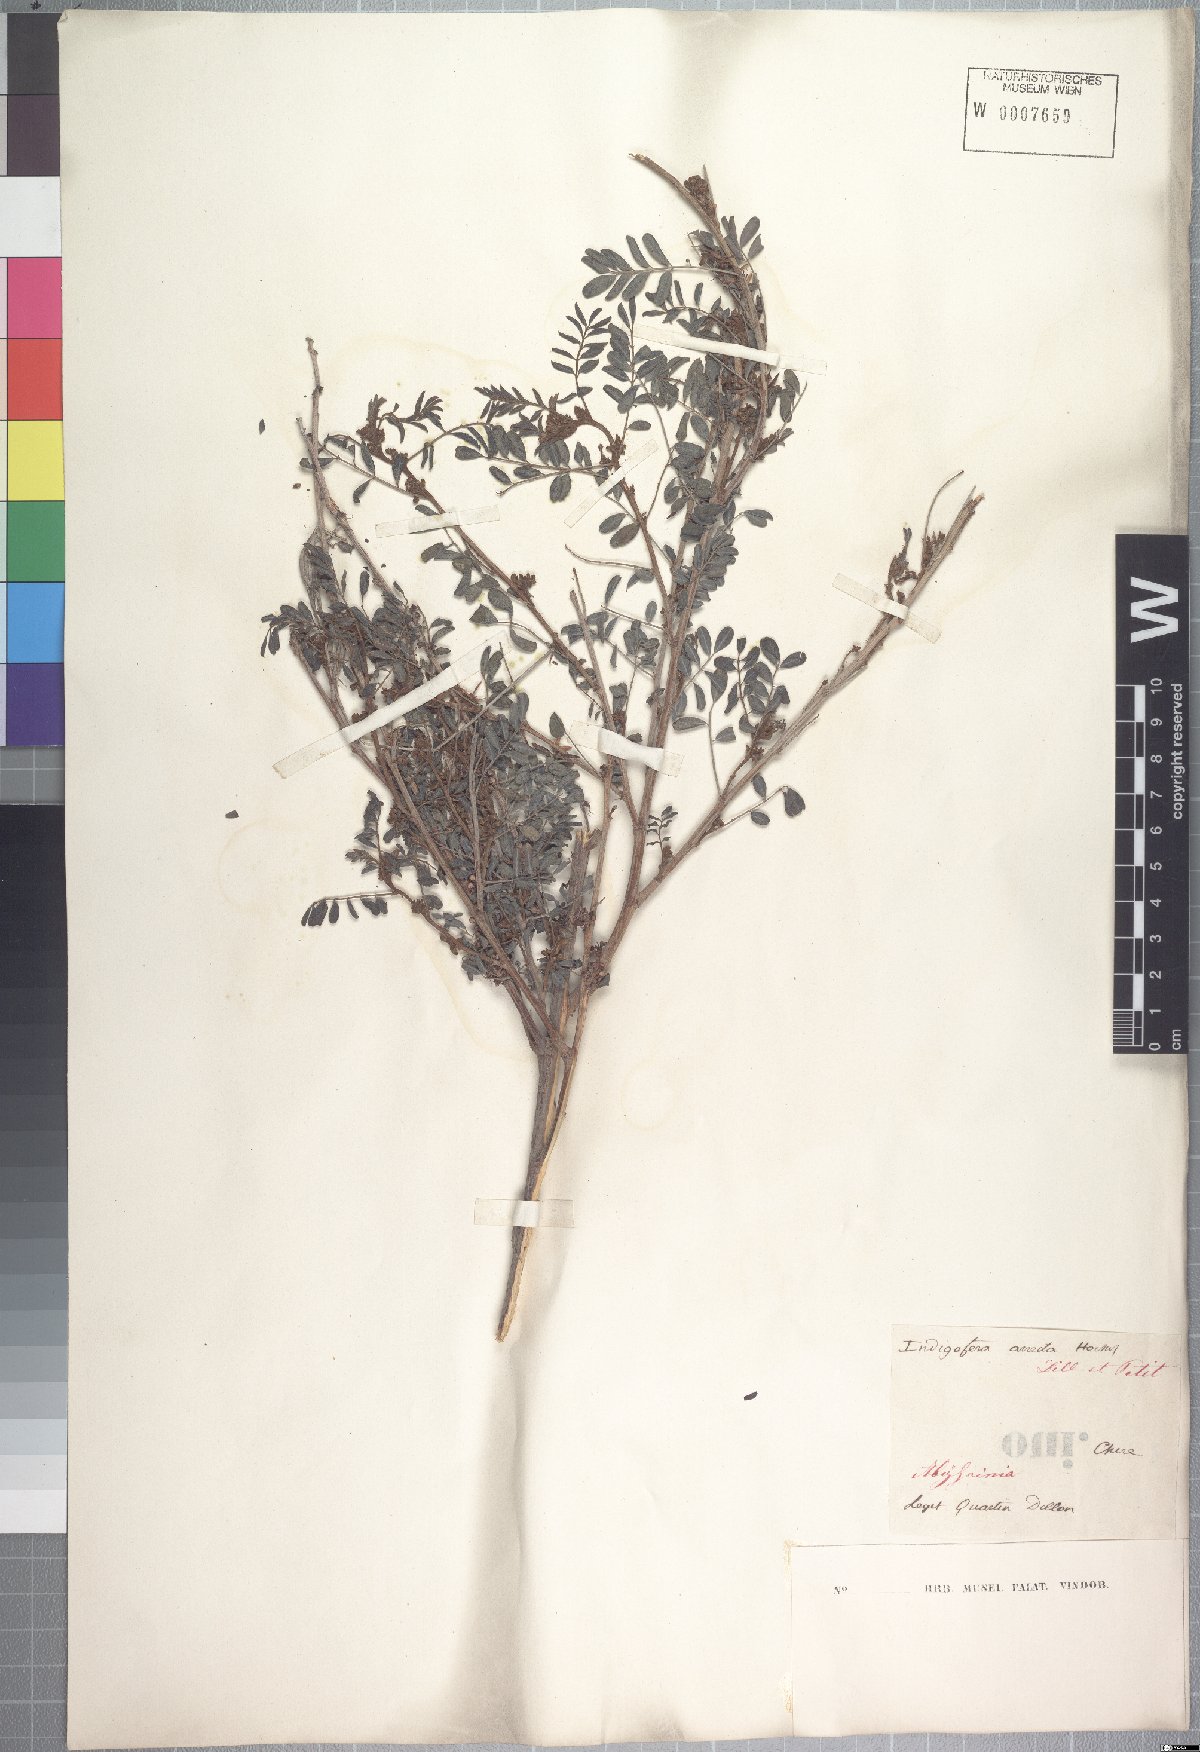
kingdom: Plantae
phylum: Tracheophyta
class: Magnoliopsida
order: Fabales
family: Fabaceae
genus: Indigofera
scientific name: Indigofera arrecta
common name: Bengal indigo
